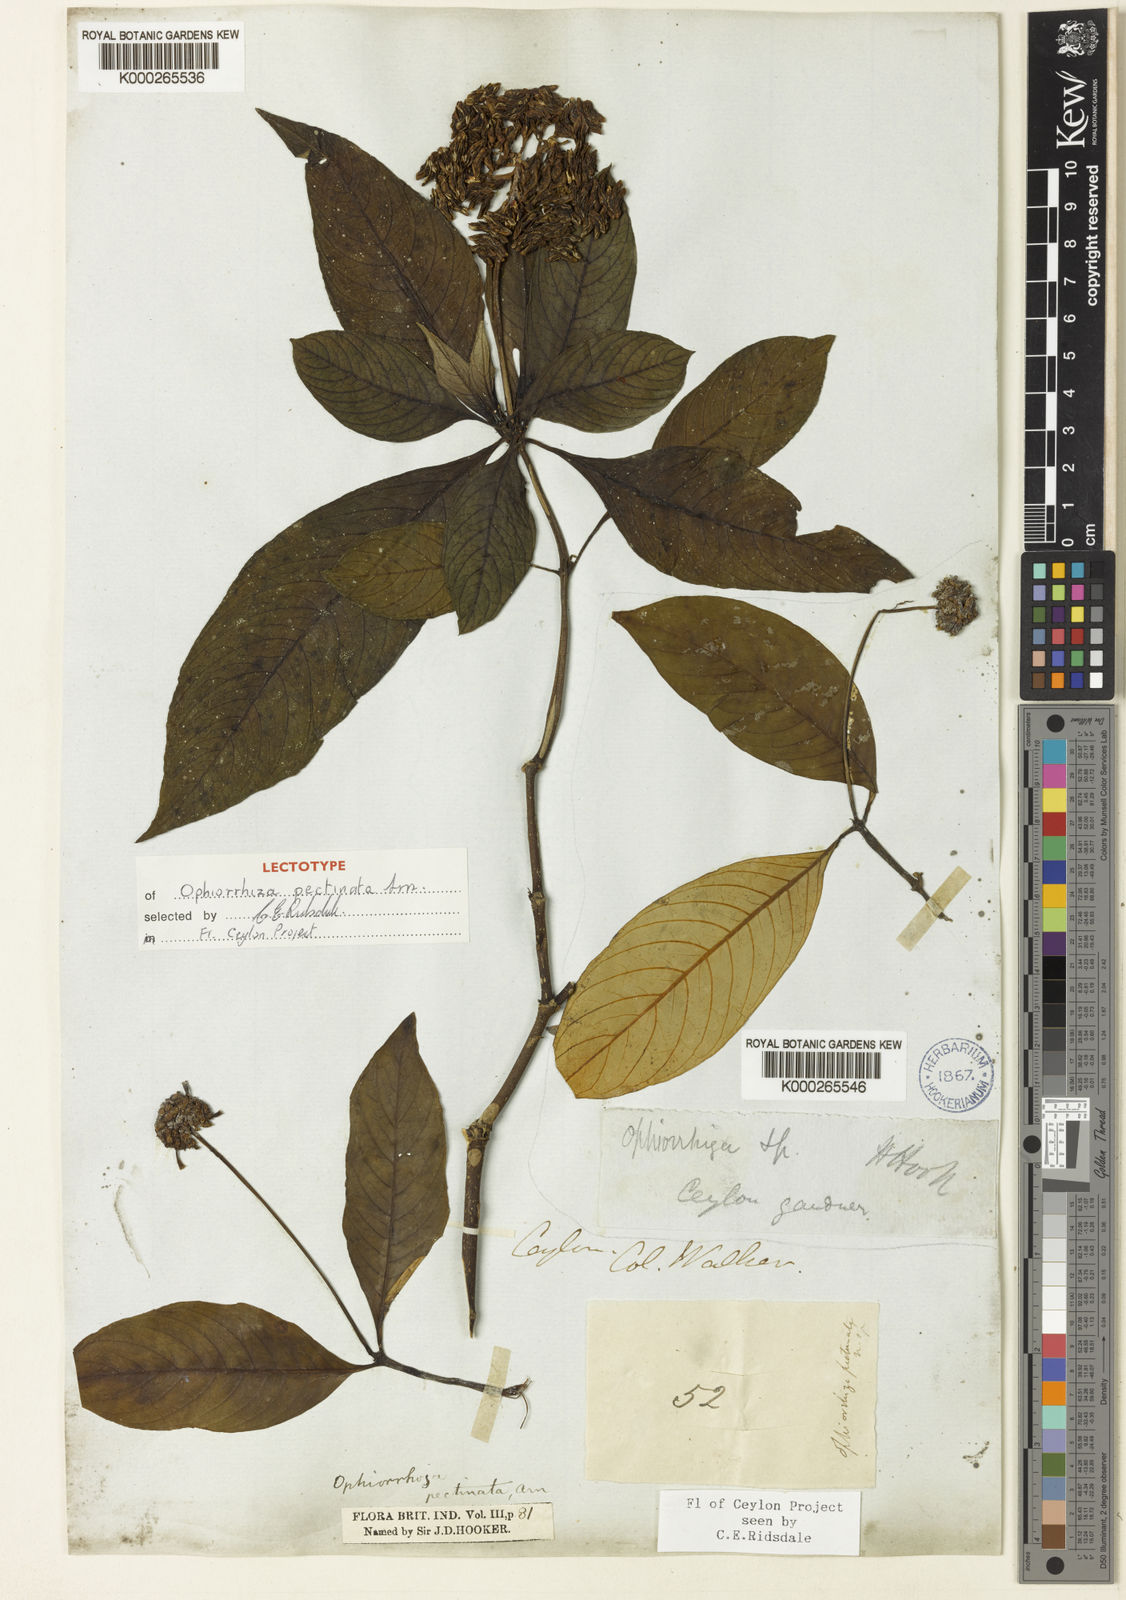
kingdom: Plantae
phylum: Tracheophyta
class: Magnoliopsida
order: Gentianales
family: Rubiaceae
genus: Ophiorrhiza
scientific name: Ophiorrhiza
